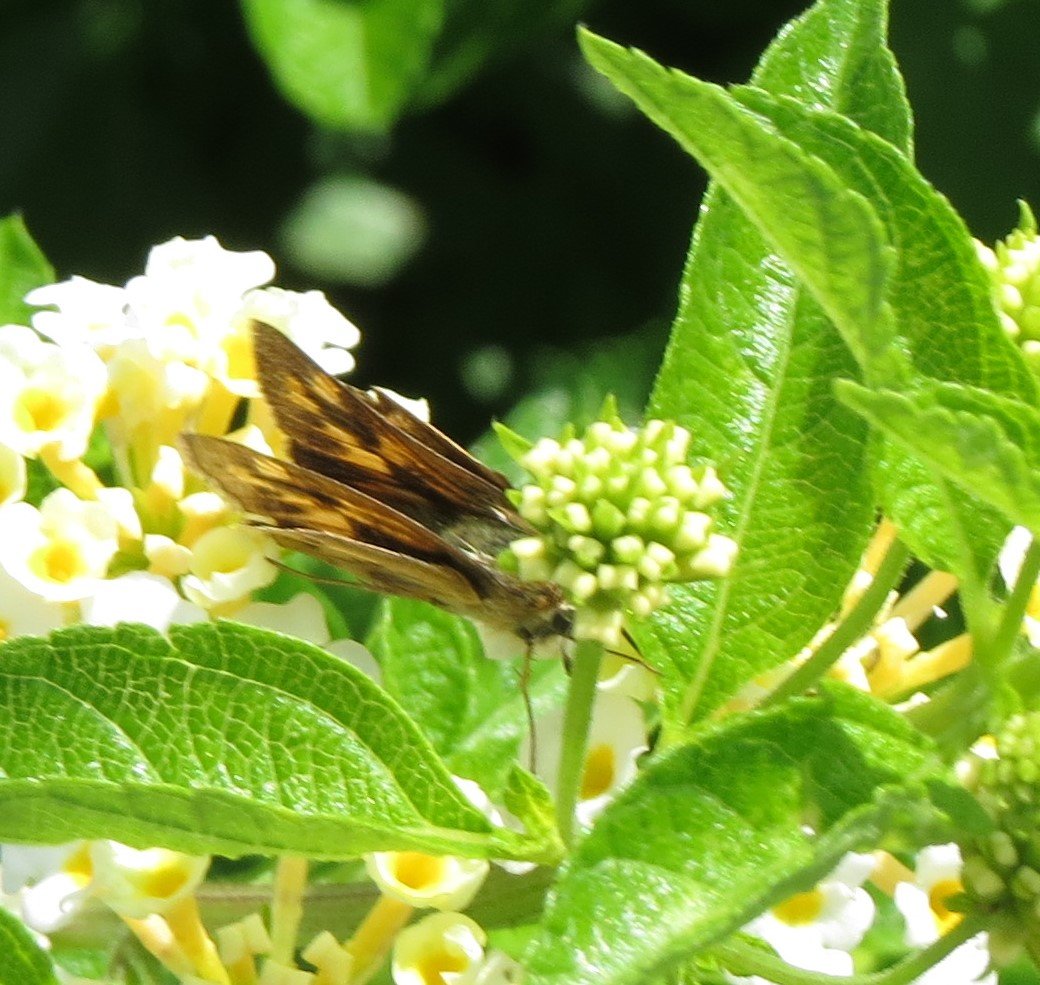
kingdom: Animalia
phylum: Arthropoda
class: Insecta
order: Lepidoptera
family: Hesperiidae
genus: Hylephila
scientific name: Hylephila phyleus
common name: Fiery Skipper
